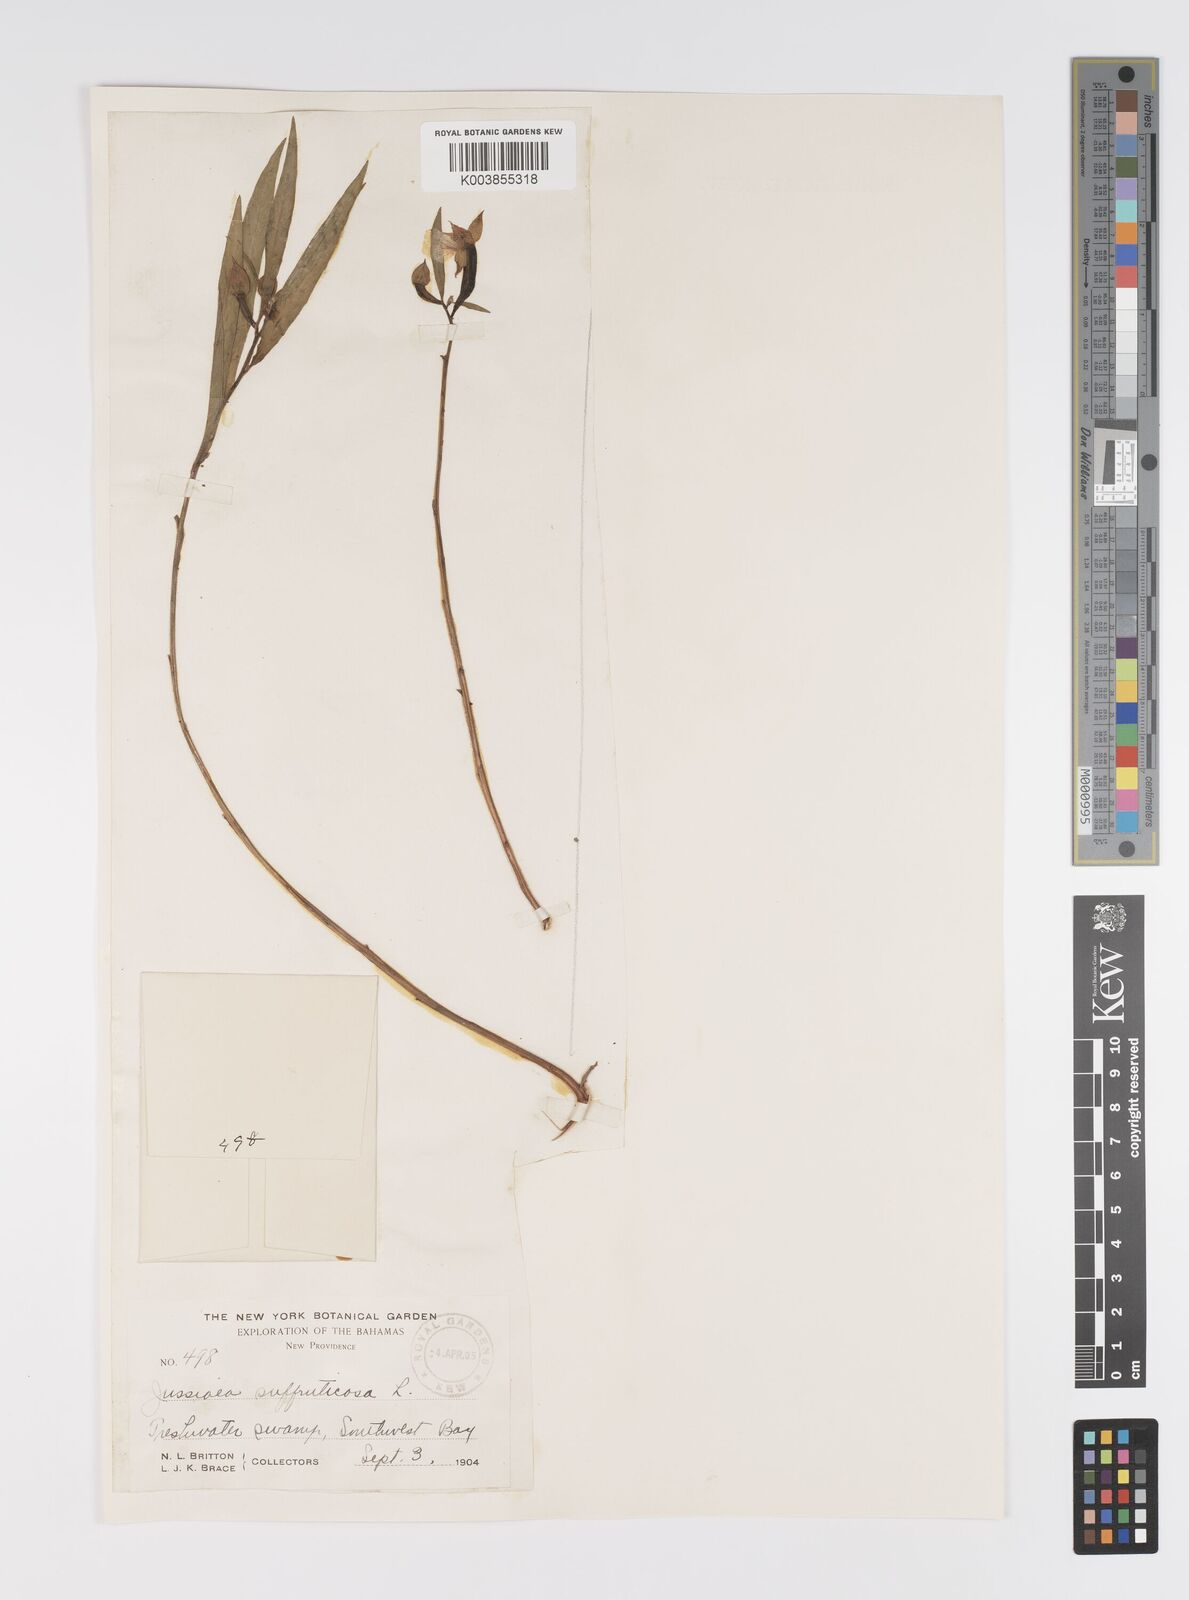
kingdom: Plantae
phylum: Tracheophyta
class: Magnoliopsida
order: Myrtales
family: Onagraceae
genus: Ludwigia
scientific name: Ludwigia octovalvis
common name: Water-primrose
